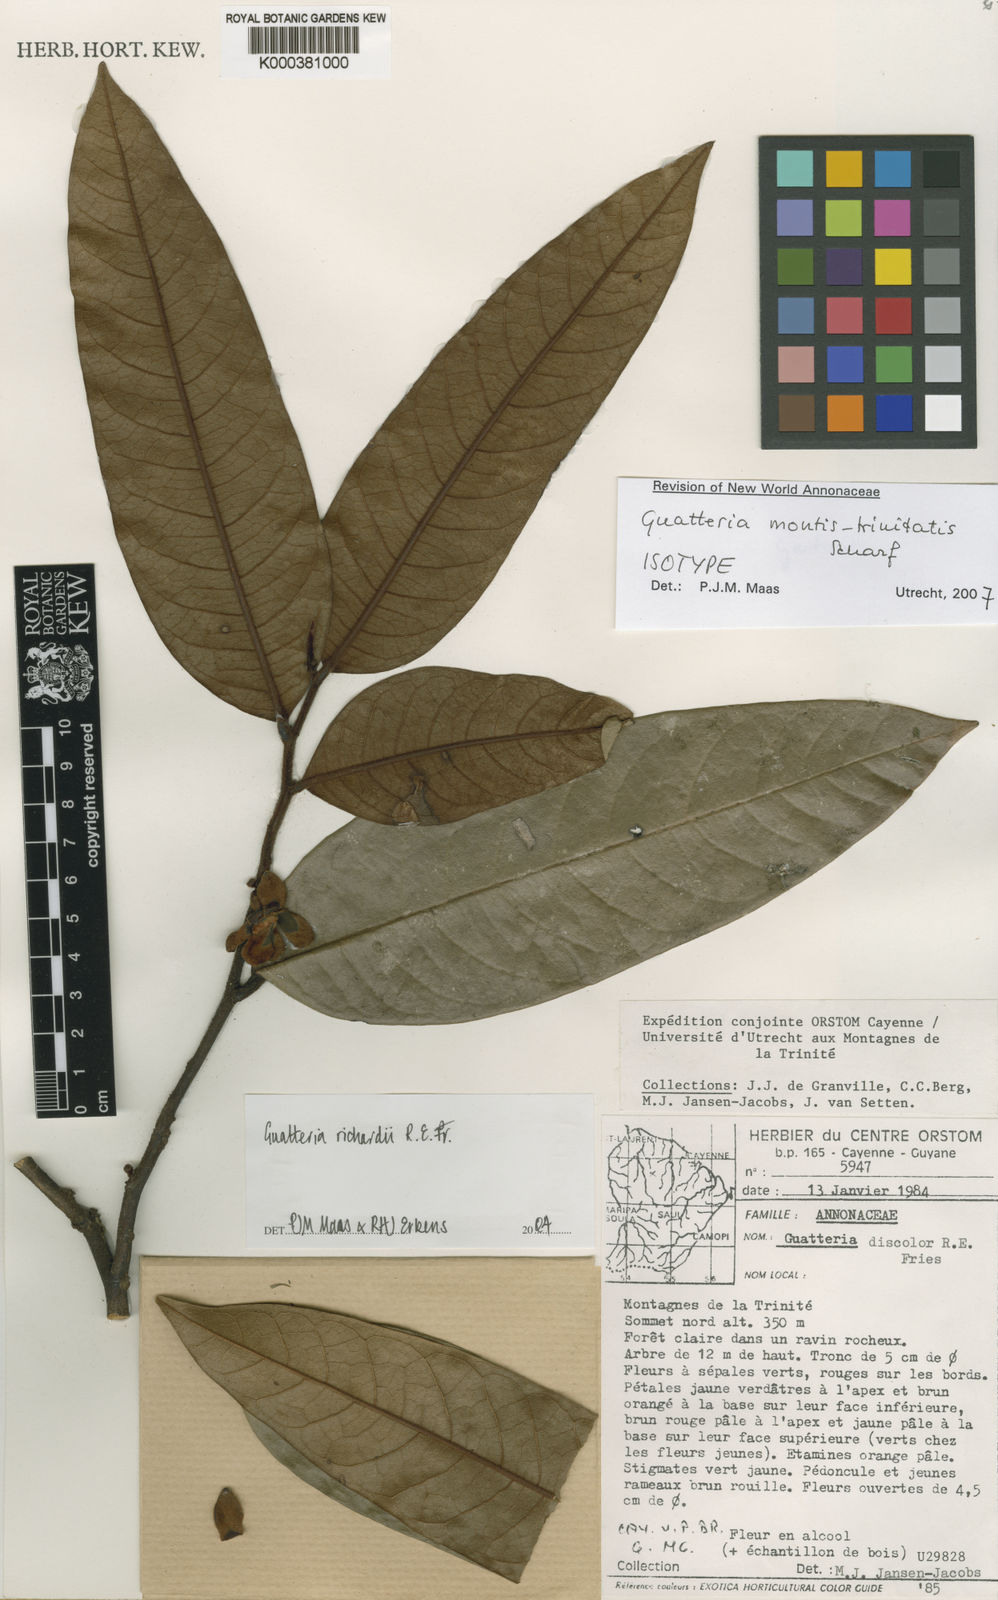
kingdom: Plantae
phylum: Tracheophyta
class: Magnoliopsida
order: Magnoliales
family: Annonaceae
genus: Guatteria
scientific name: Guatteria montis-trinitatis
